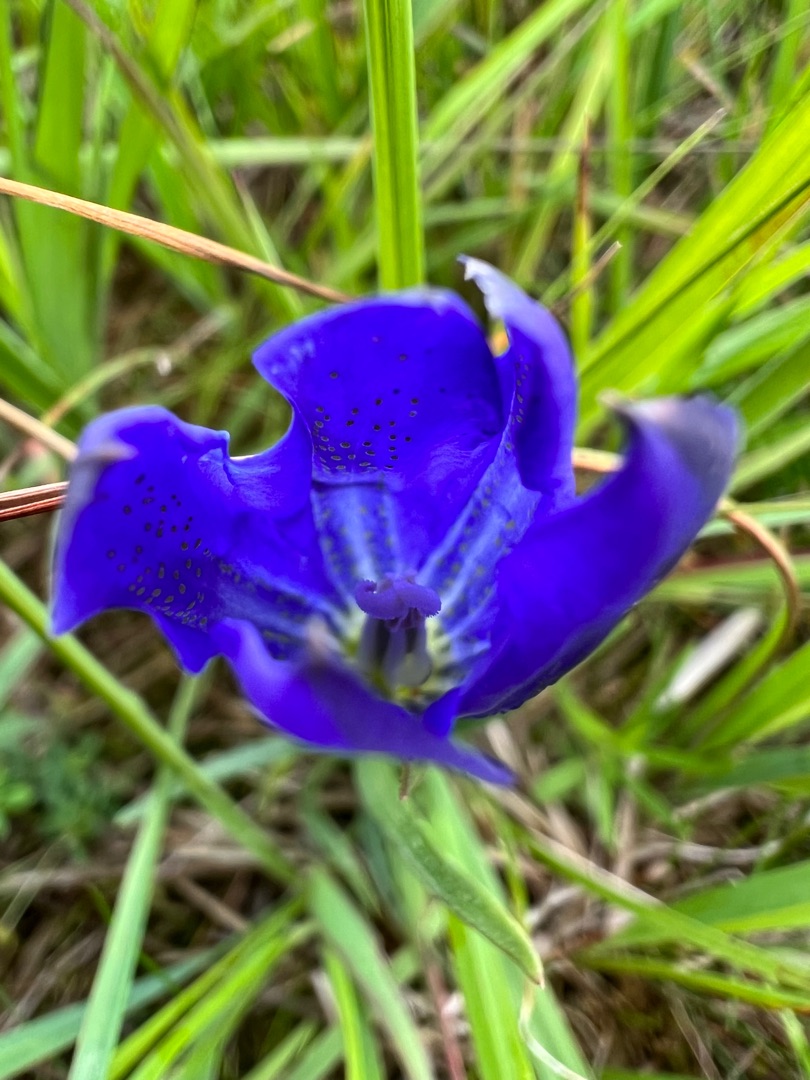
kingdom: Plantae
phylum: Tracheophyta
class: Magnoliopsida
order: Gentianales
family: Gentianaceae
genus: Gentiana
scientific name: Gentiana pneumonanthe
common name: Klokke-ensian
